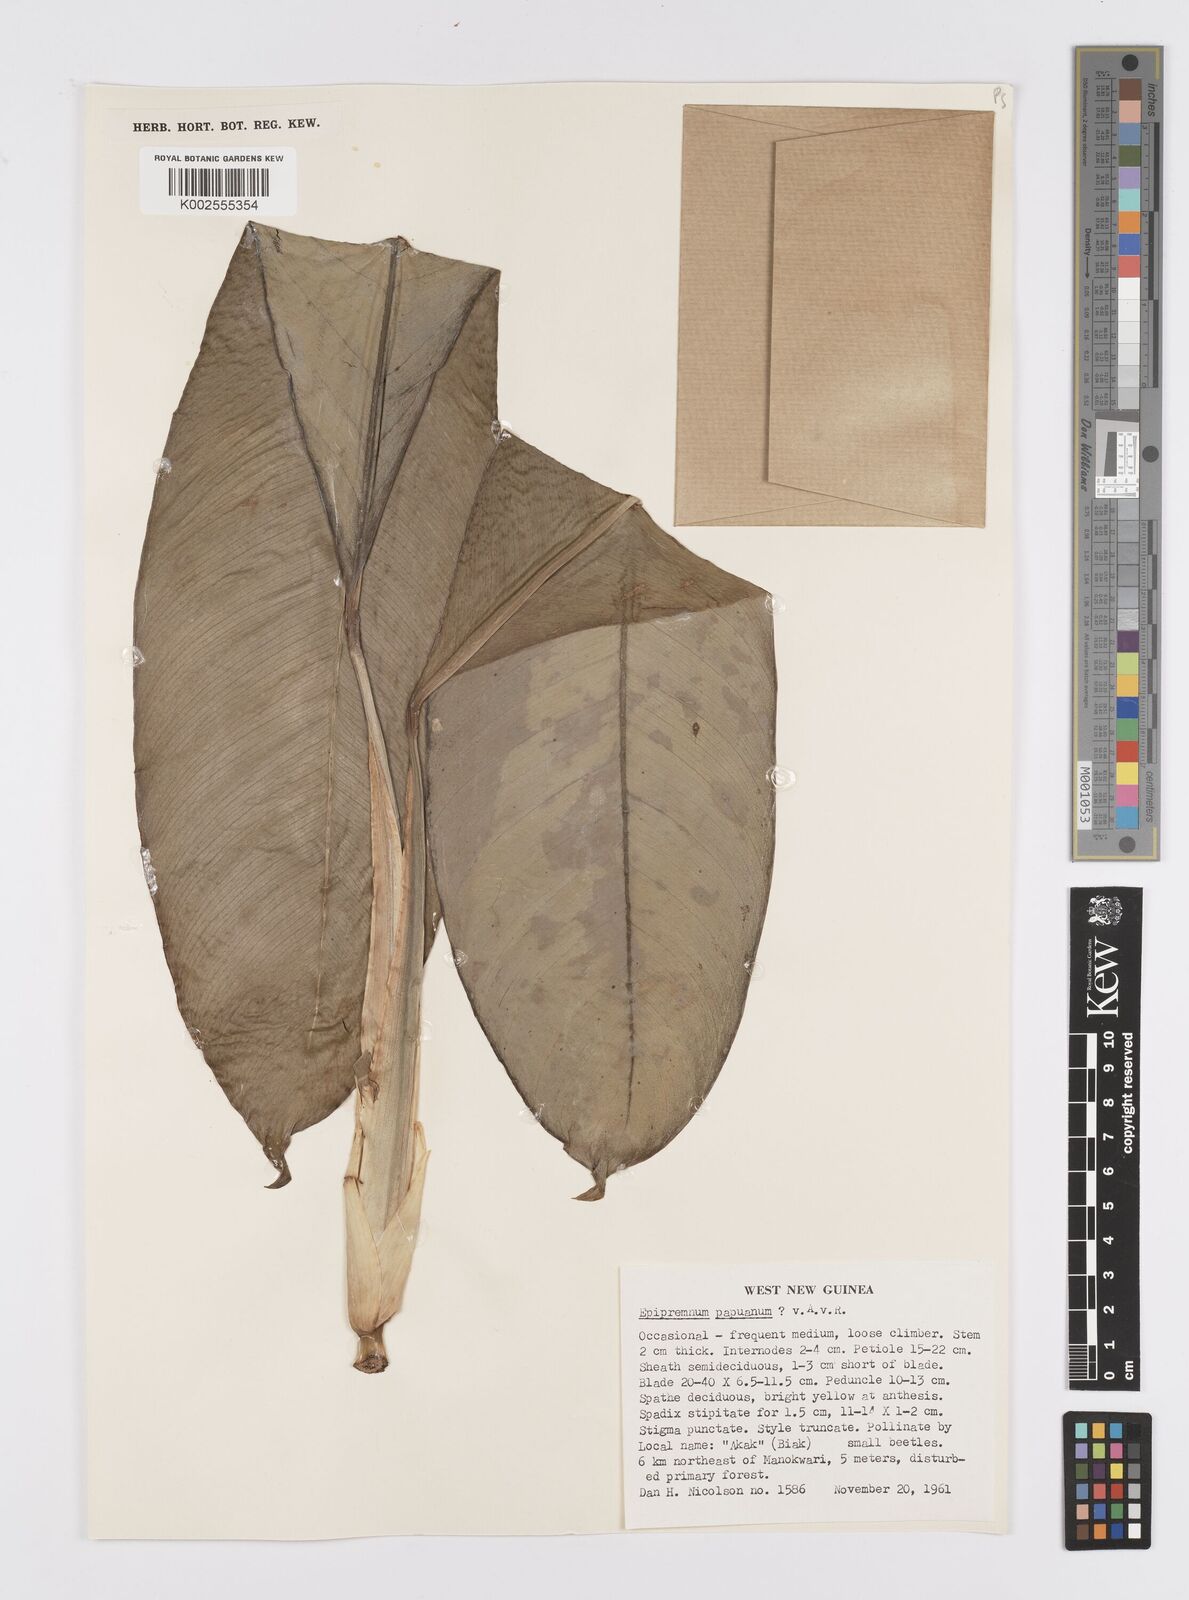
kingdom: Plantae
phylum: Tracheophyta
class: Liliopsida
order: Alismatales
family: Araceae
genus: Epipremnum
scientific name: Epipremnum papuanum
